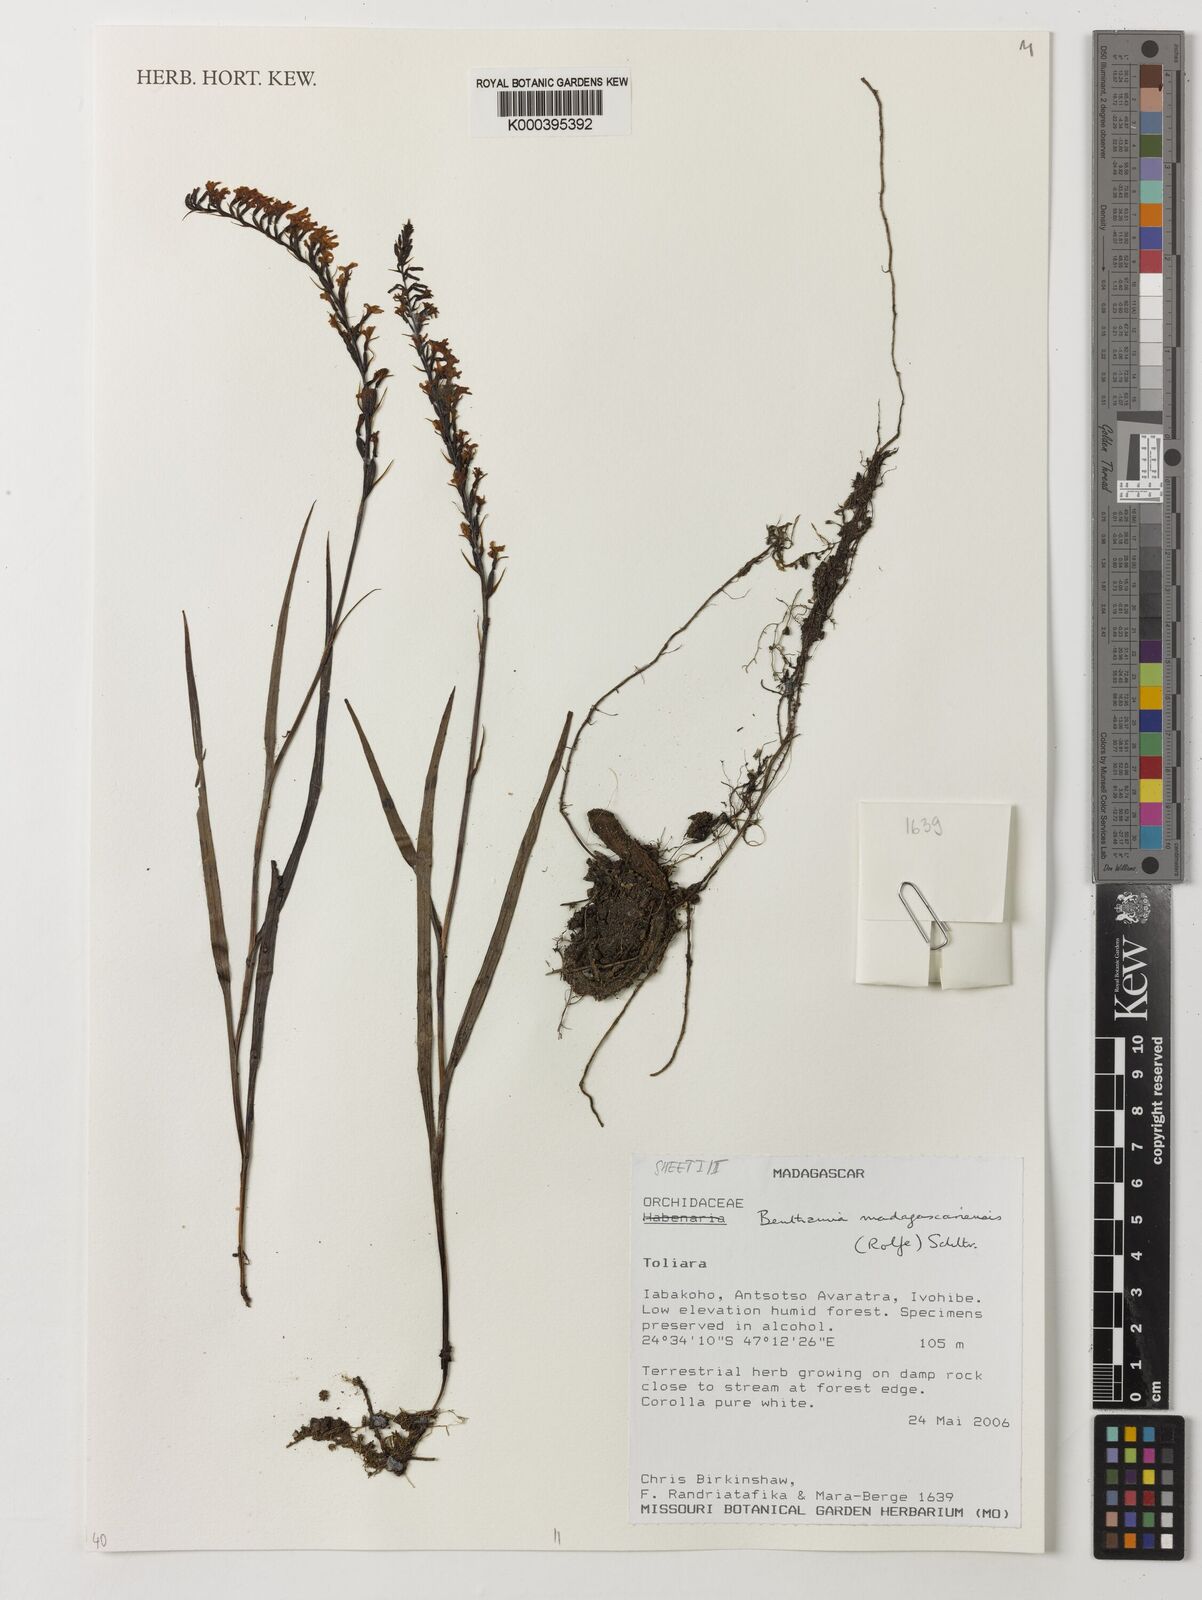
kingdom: Plantae
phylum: Tracheophyta
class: Liliopsida
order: Asparagales
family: Orchidaceae
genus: Benthamia
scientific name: Benthamia madagascariensis
